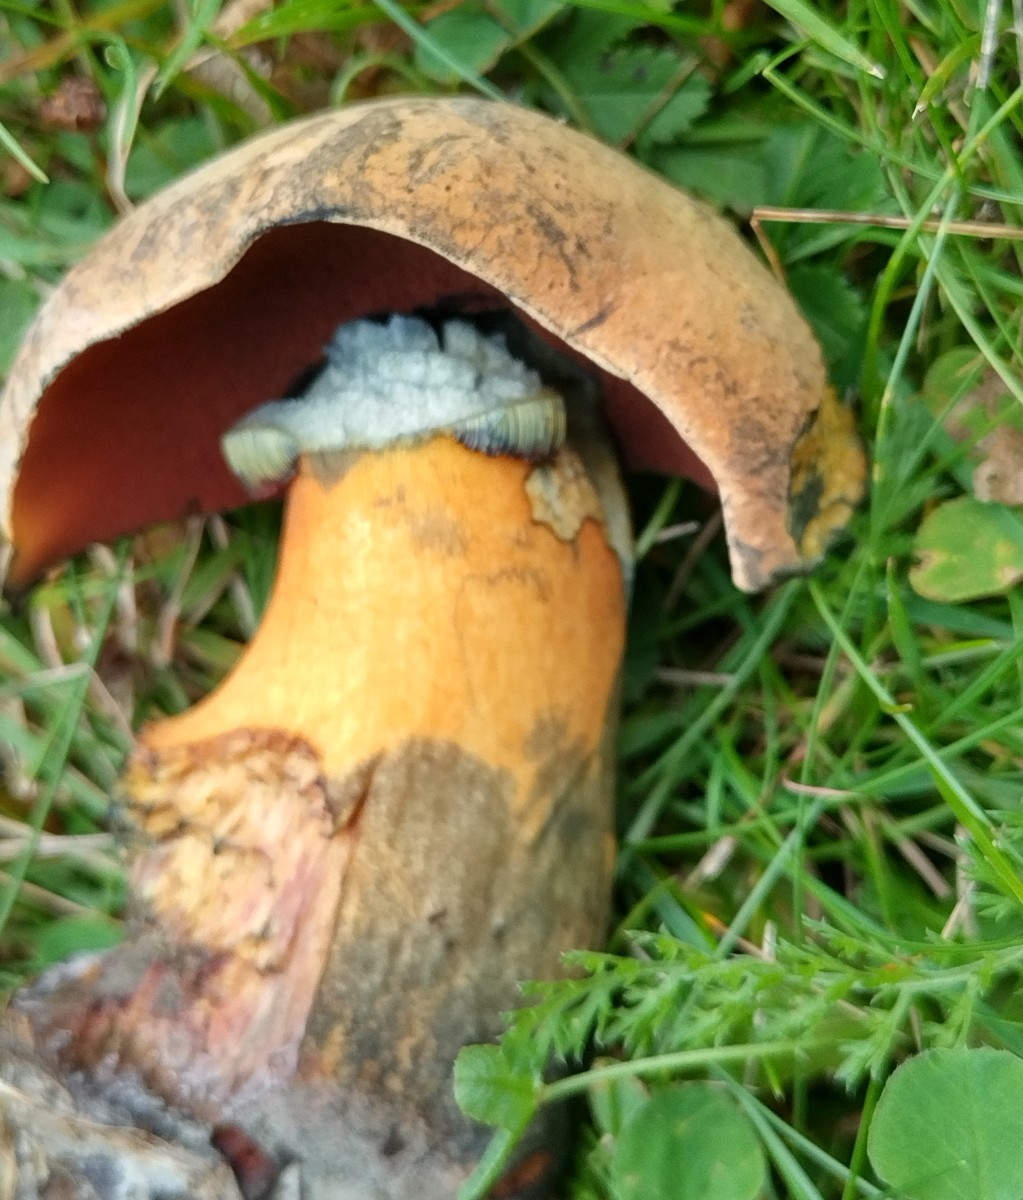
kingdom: Fungi
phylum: Basidiomycota
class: Agaricomycetes
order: Boletales
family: Boletaceae
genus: Suillellus
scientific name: Suillellus queletii
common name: glatstokket indigorørhat
